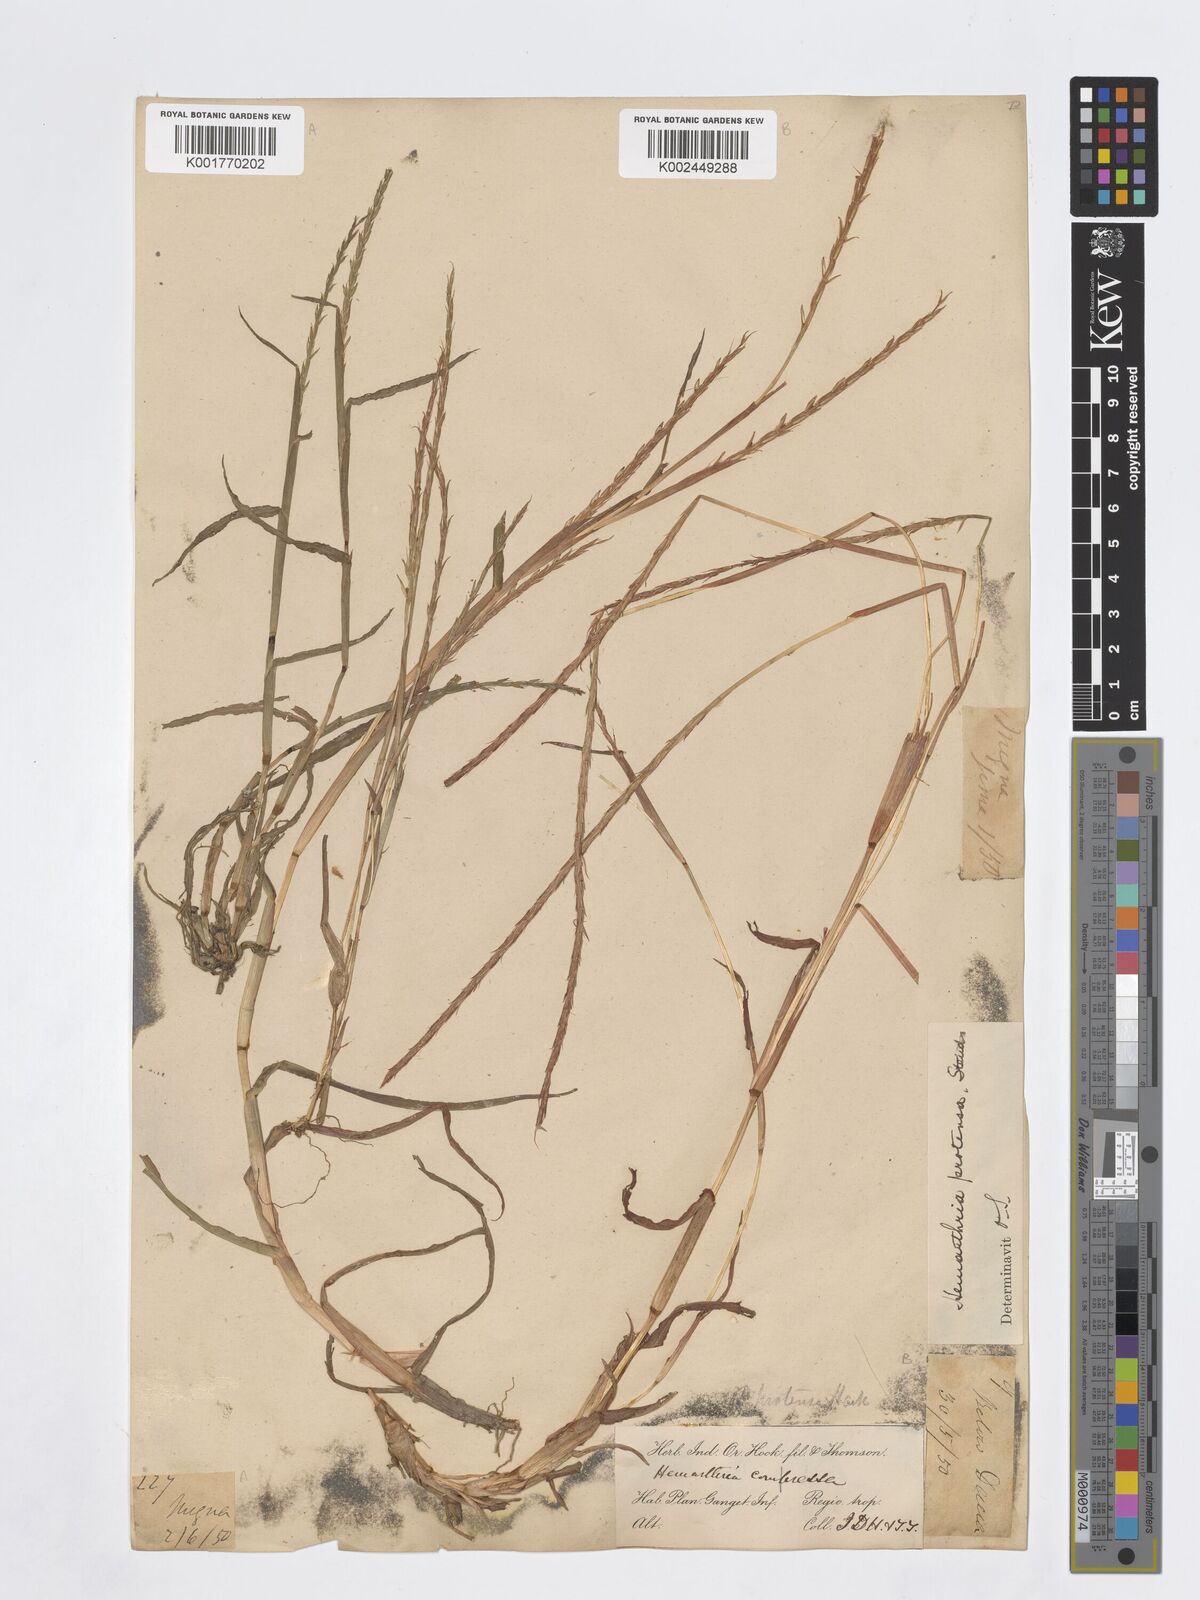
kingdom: Plantae
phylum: Tracheophyta
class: Liliopsida
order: Poales
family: Poaceae
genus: Hemarthria
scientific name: Hemarthria protensa
